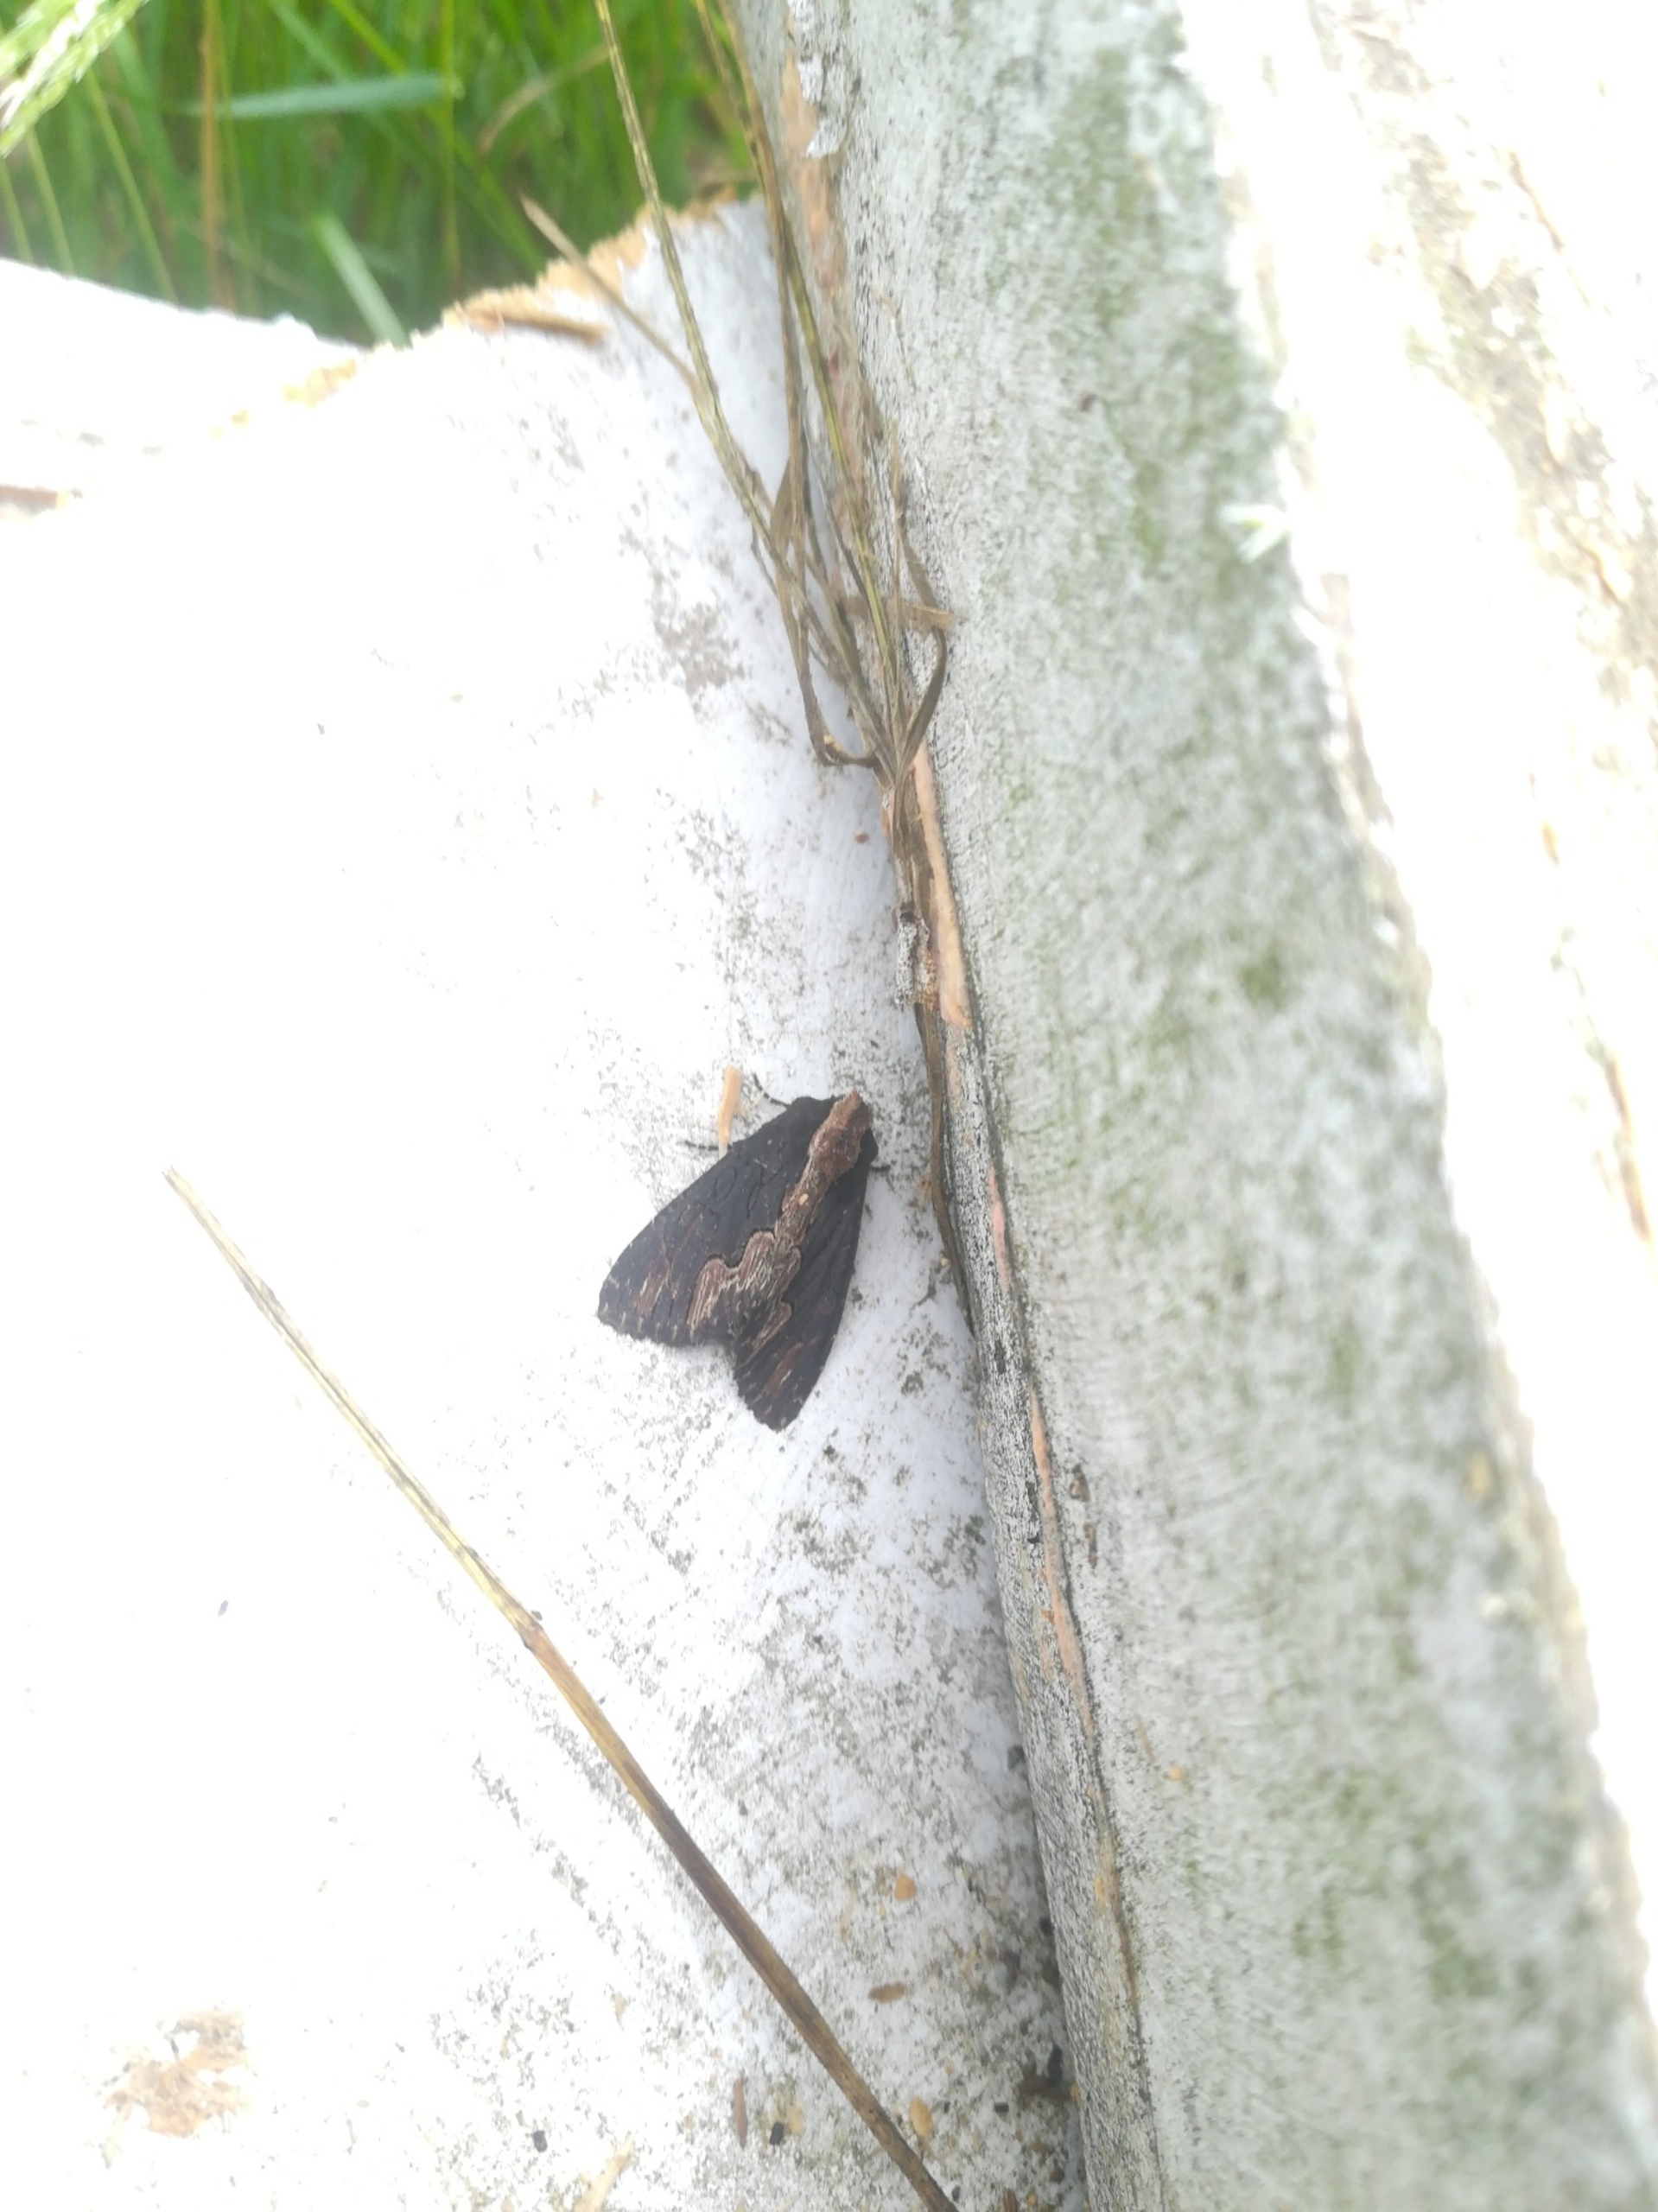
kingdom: Animalia
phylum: Arthropoda
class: Insecta
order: Lepidoptera
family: Noctuidae
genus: Dypterygia
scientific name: Dypterygia scabriuscula
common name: Mørk skræppeugle
